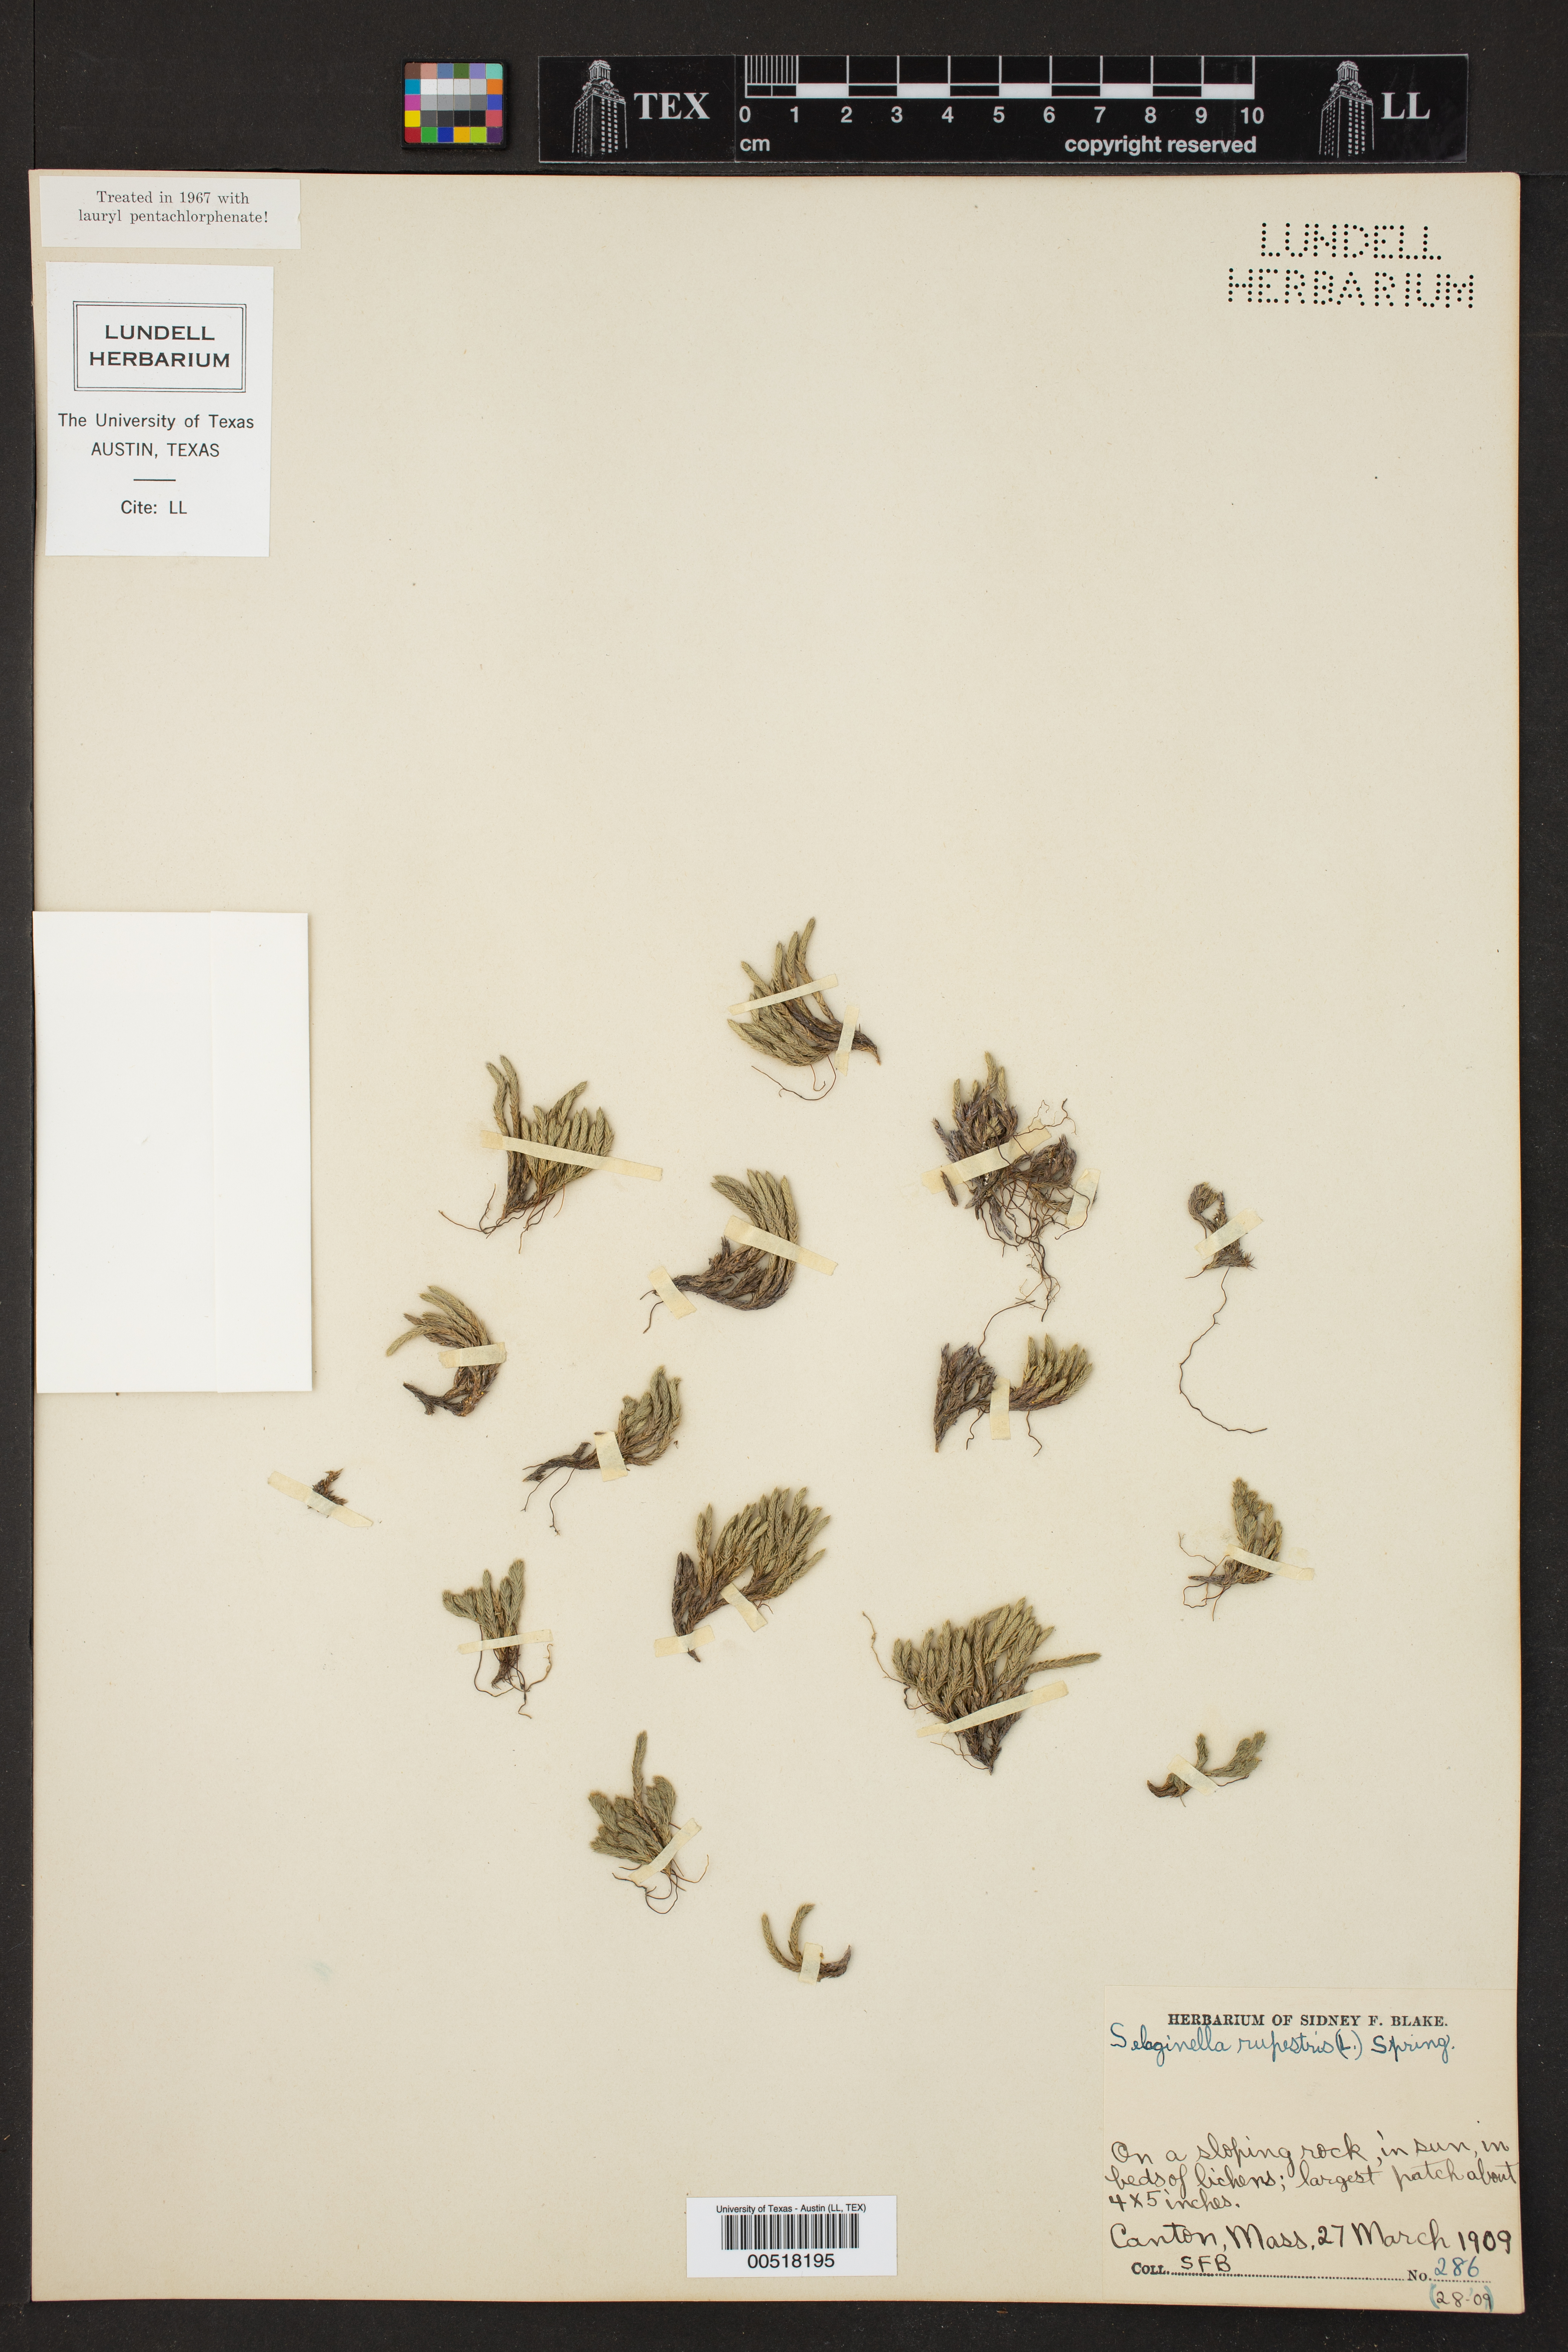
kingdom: Plantae
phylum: Tracheophyta
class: Lycopodiopsida
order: Selaginellales
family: Selaginellaceae
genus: Selaginella
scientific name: Selaginella rupestris
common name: Dwarf spikemoss
